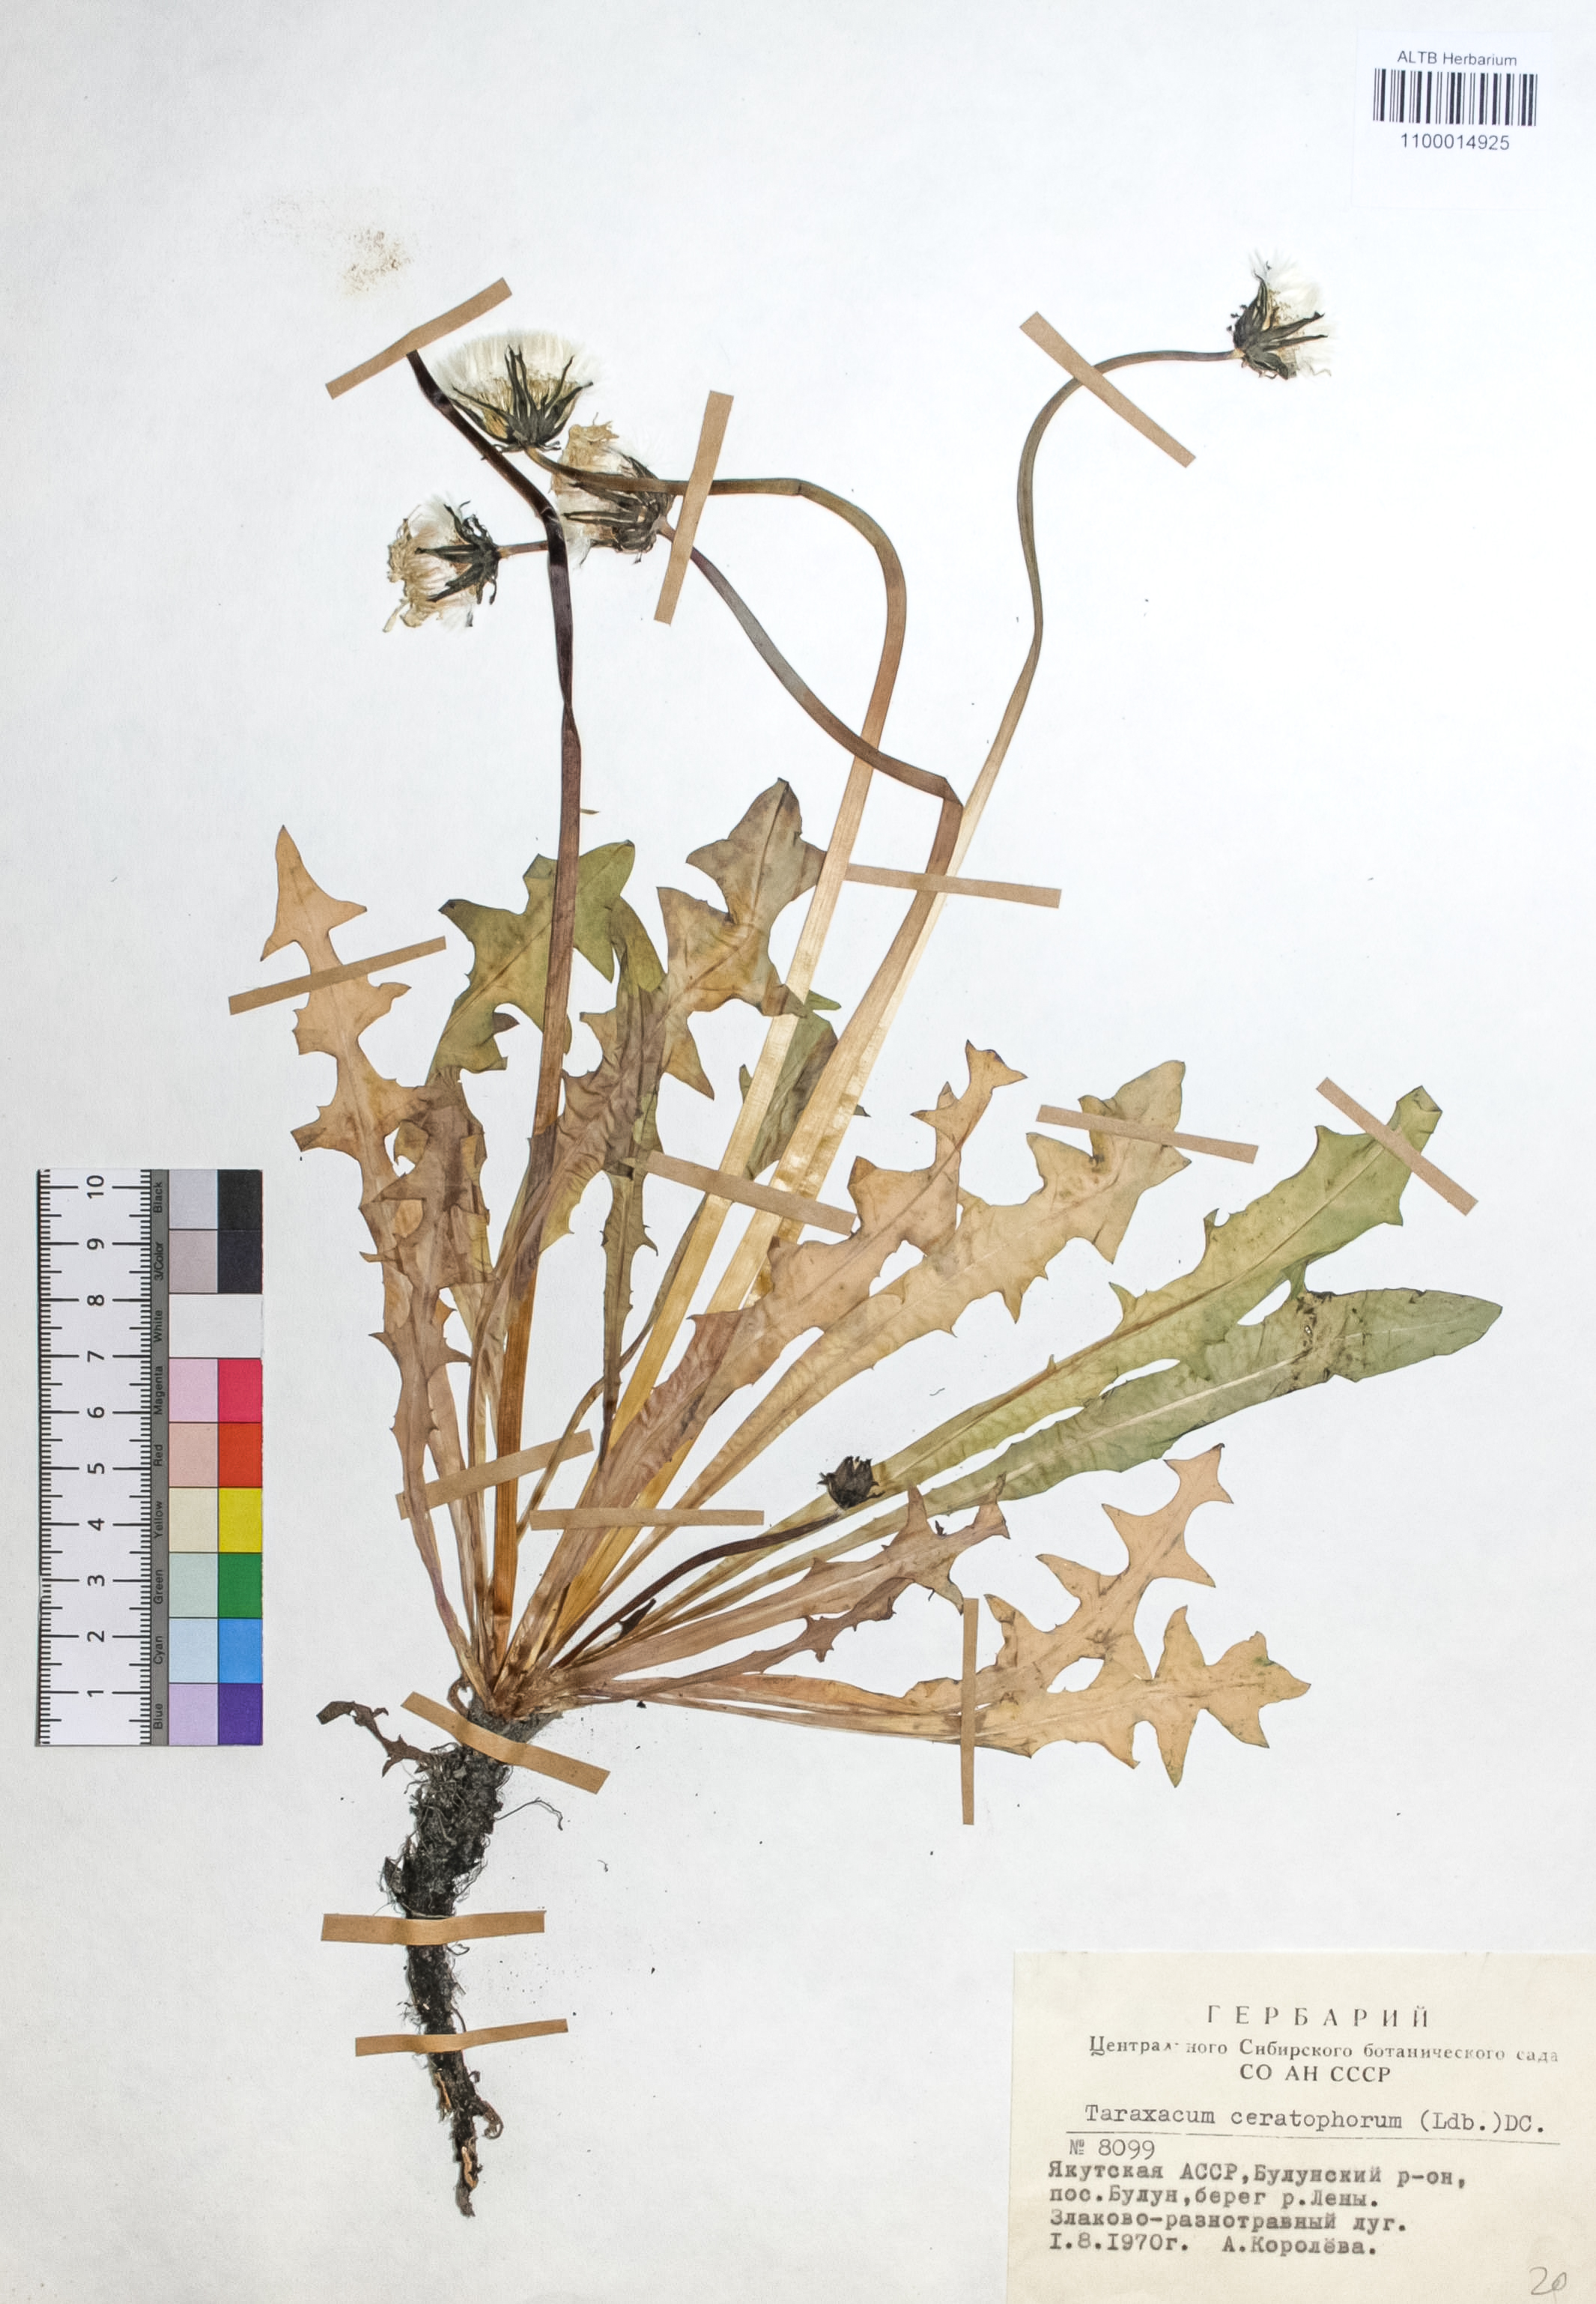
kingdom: Plantae
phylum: Tracheophyta
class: Magnoliopsida
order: Asterales
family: Asteraceae
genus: Taraxacum
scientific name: Taraxacum ceratophorum
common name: Horn-bearing dandelion
